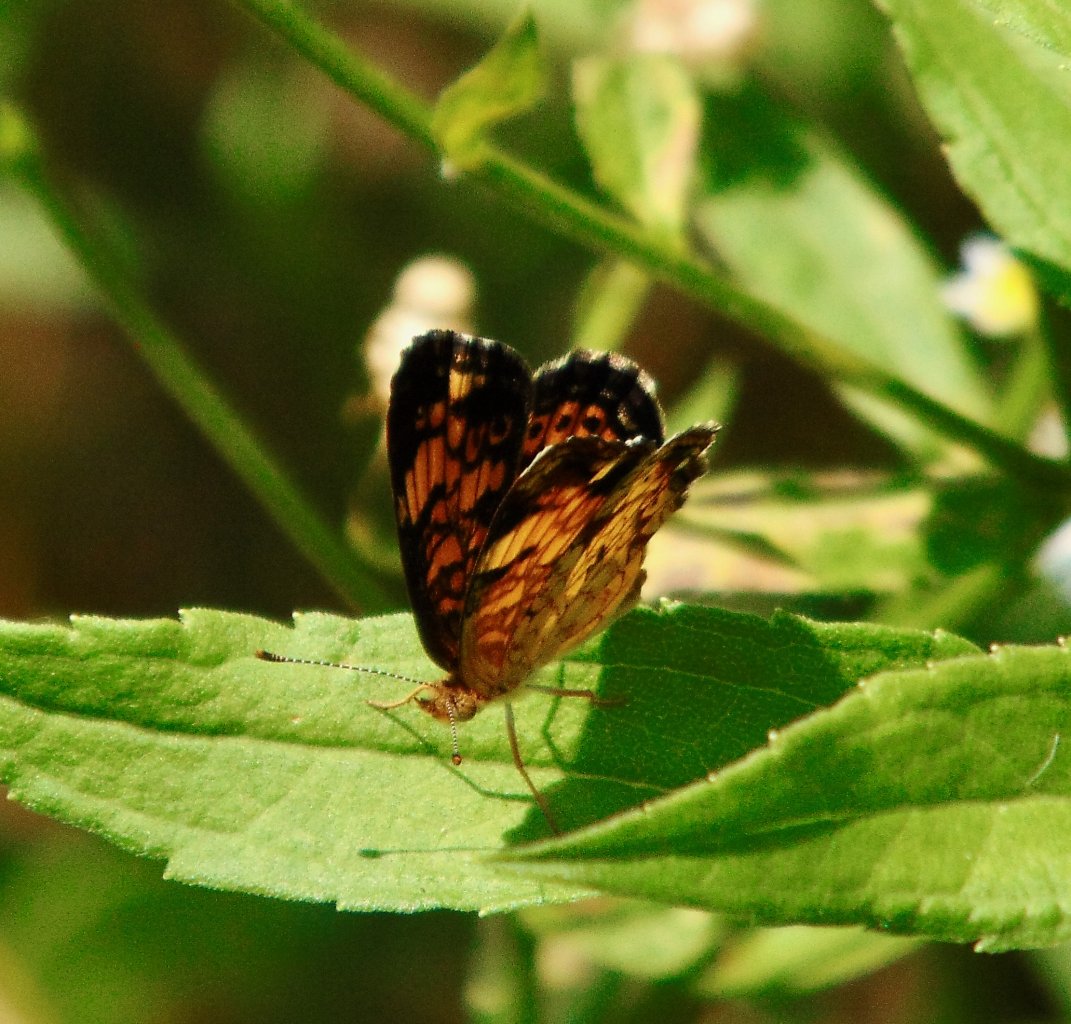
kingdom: Animalia
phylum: Arthropoda
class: Insecta
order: Lepidoptera
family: Nymphalidae
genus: Phyciodes
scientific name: Phyciodes tharos
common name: Pearl Crescent
